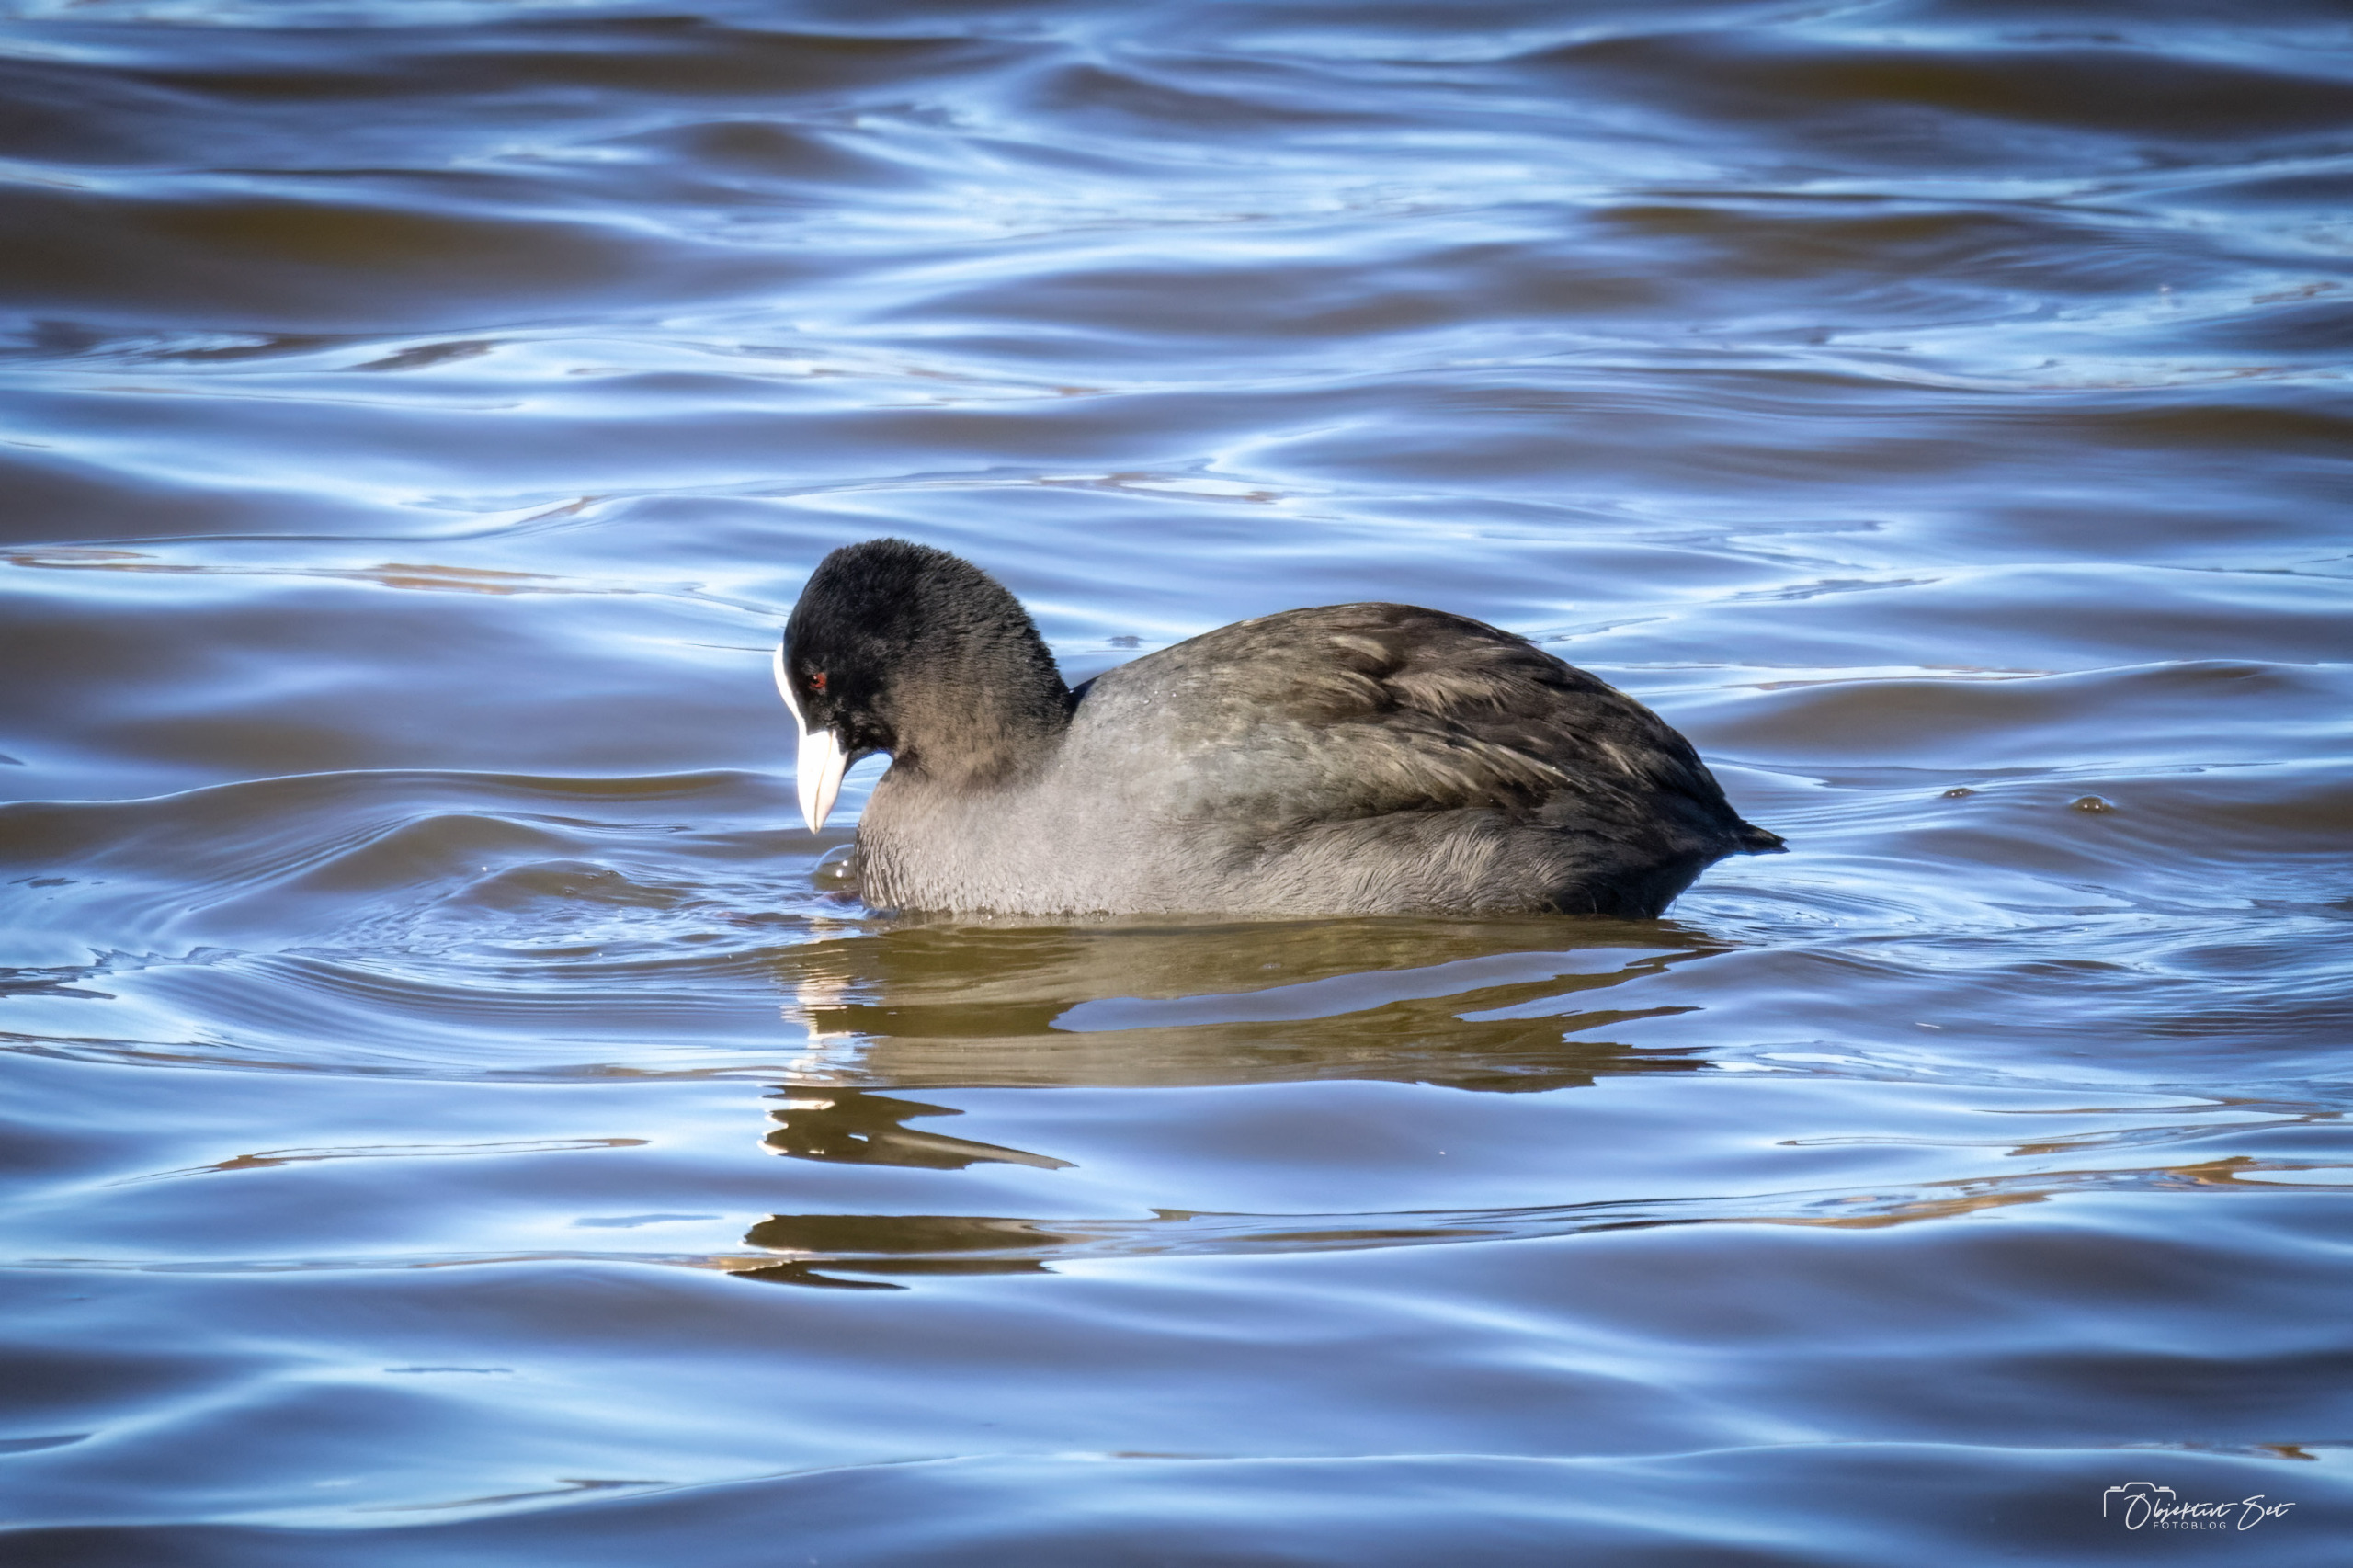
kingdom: Animalia
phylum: Chordata
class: Aves
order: Gruiformes
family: Rallidae
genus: Fulica
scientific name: Fulica atra
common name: Blishøne
